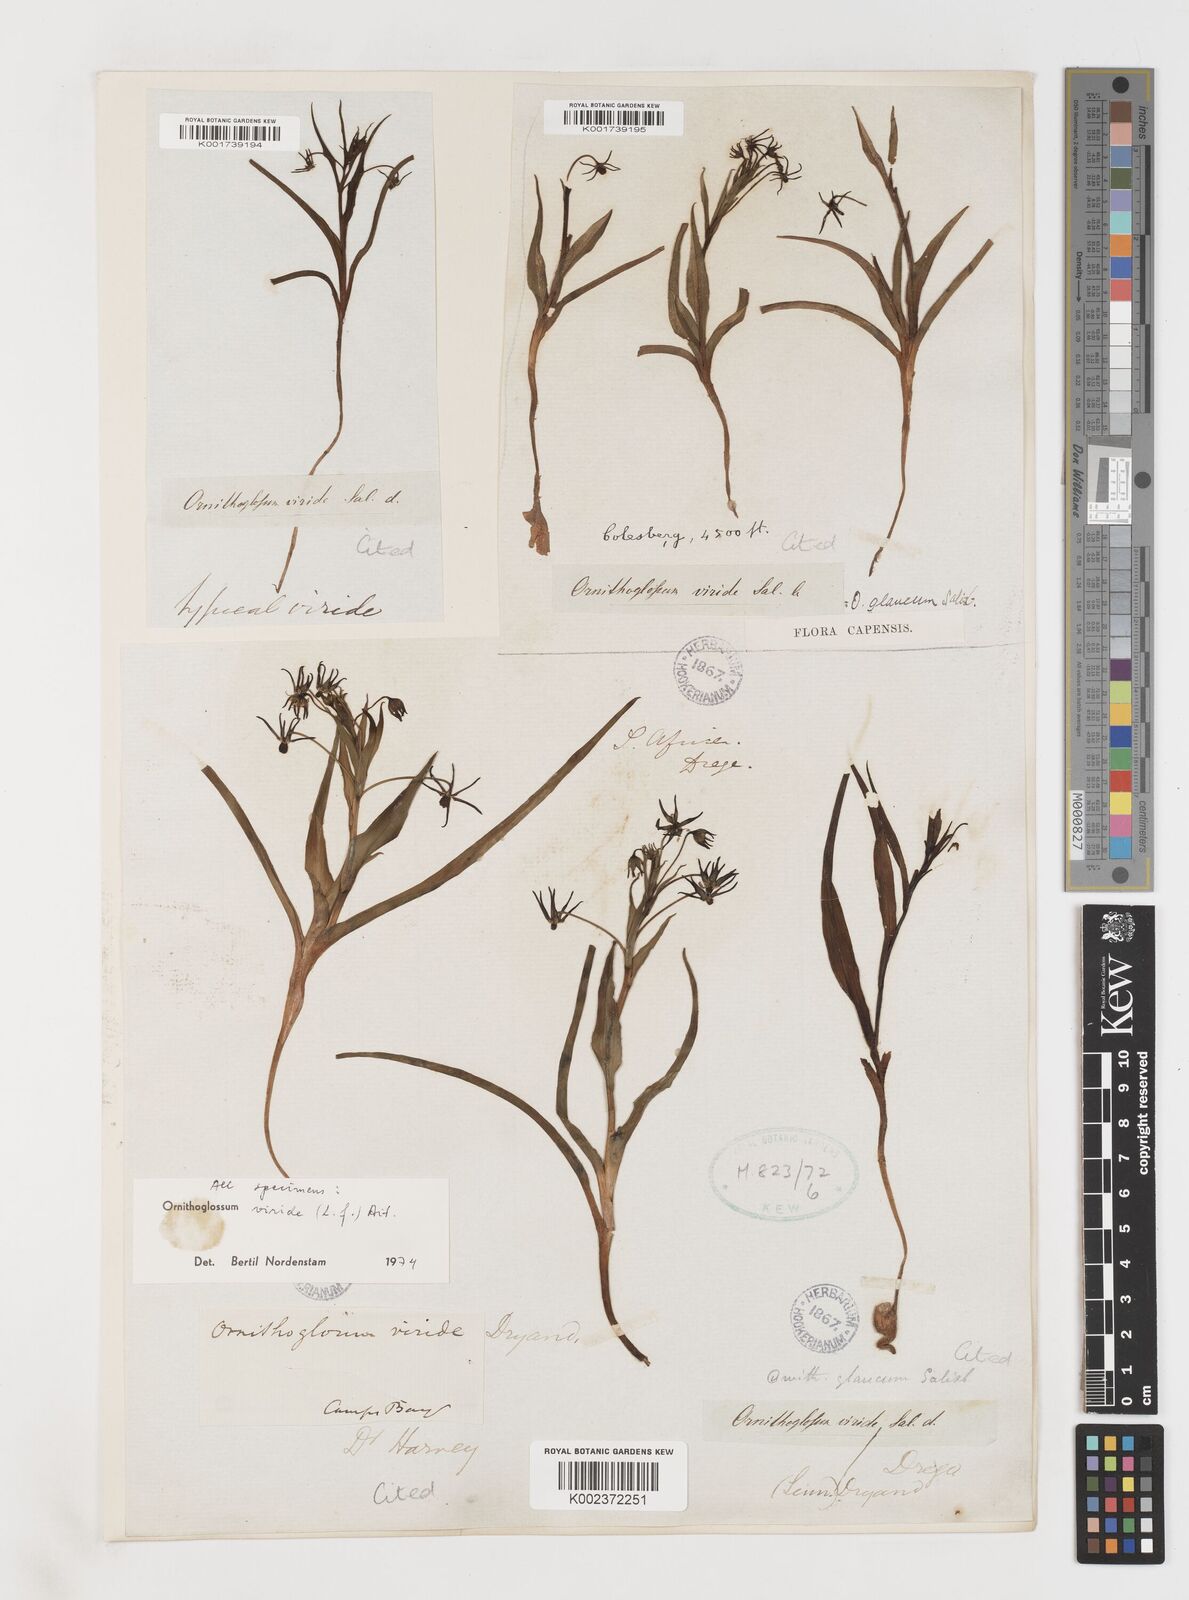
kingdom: Plantae
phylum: Tracheophyta
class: Liliopsida
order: Liliales
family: Colchicaceae
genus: Ornithoglossum
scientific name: Ornithoglossum viride
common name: Cape poison-onion
